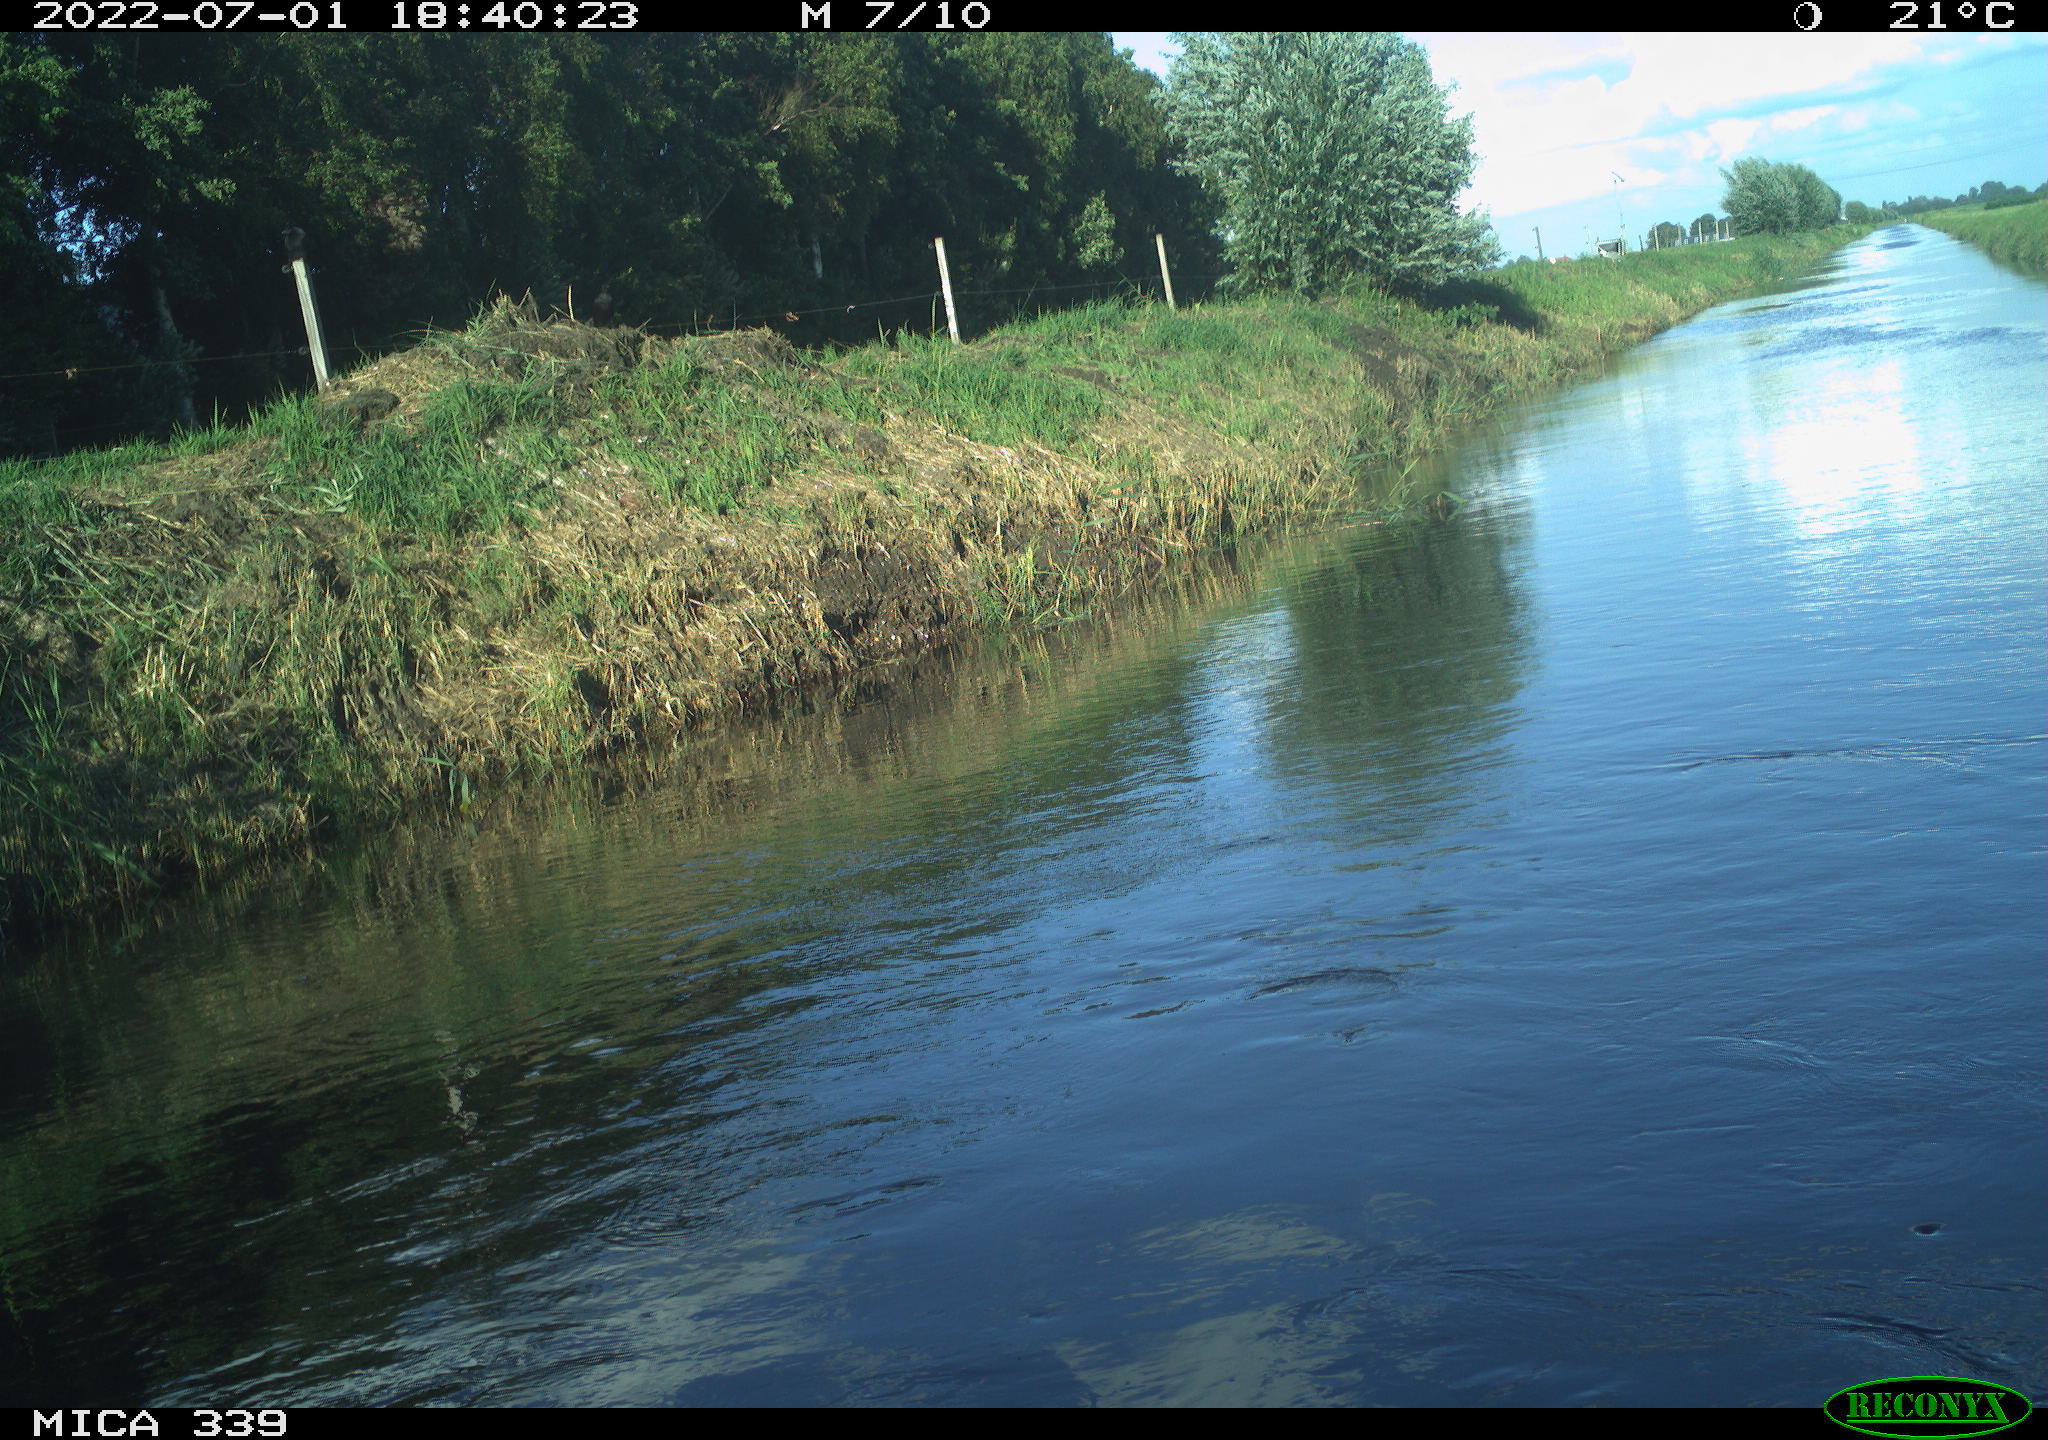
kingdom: Animalia
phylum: Chordata
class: Aves
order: Pelecaniformes
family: Ardeidae
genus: Ardea
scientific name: Ardea cinerea
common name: Grey heron
